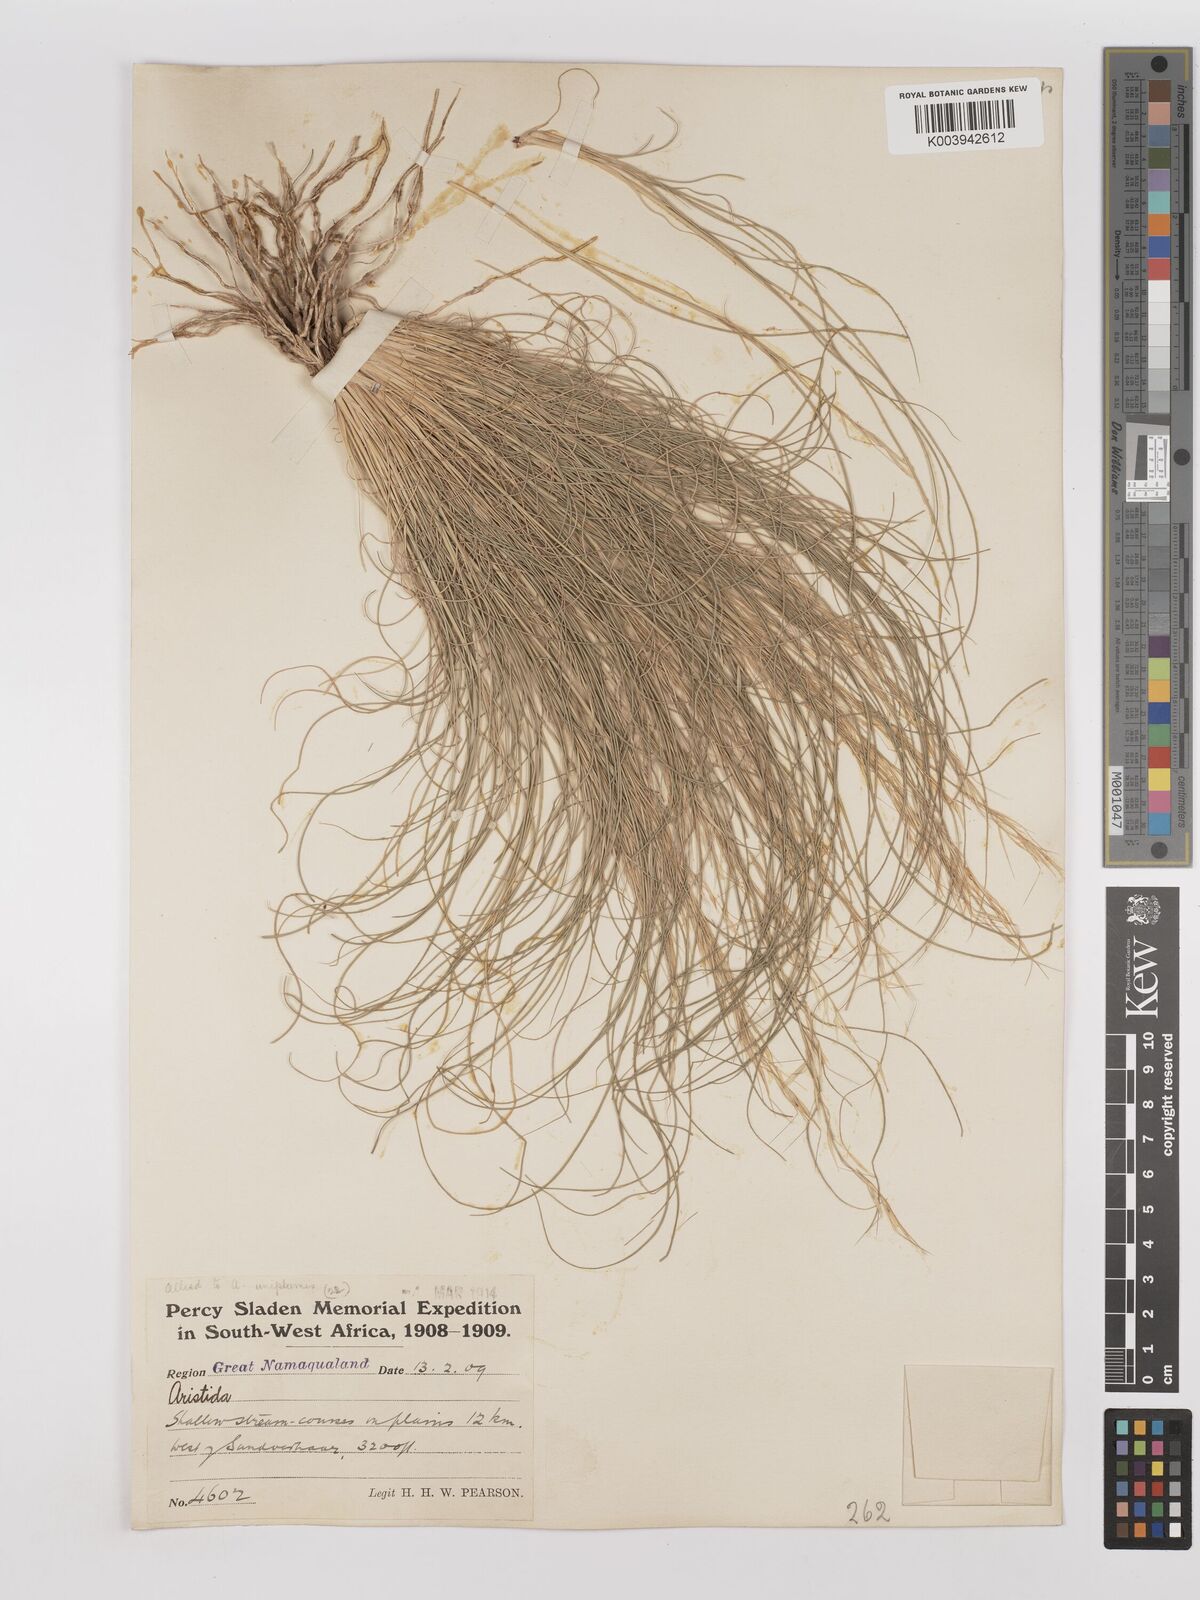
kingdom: Plantae
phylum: Tracheophyta
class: Liliopsida
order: Poales
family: Poaceae
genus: Stipagrostis
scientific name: Stipagrostis anomala
